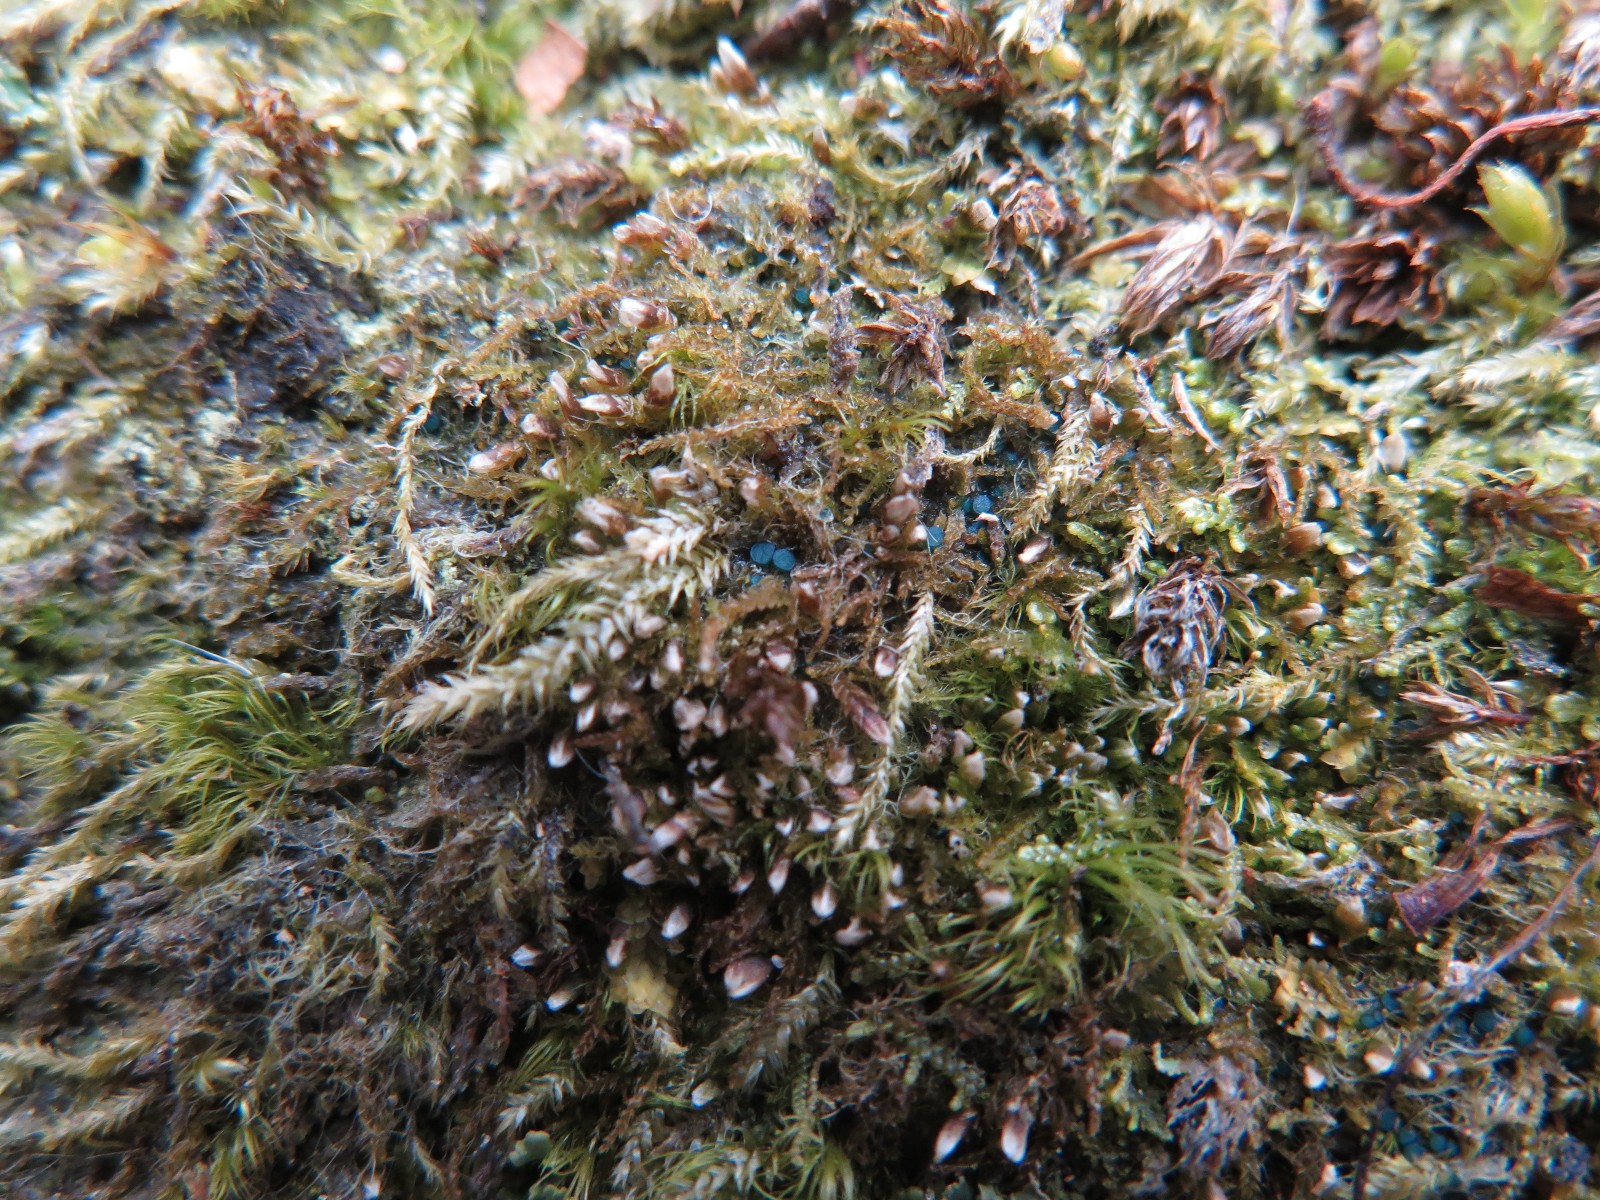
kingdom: Fungi
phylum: Ascomycota
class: Leotiomycetes
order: Leotiales
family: Mniaeciaceae
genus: Mniaecia
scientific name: Mniaecia jungermanniae
